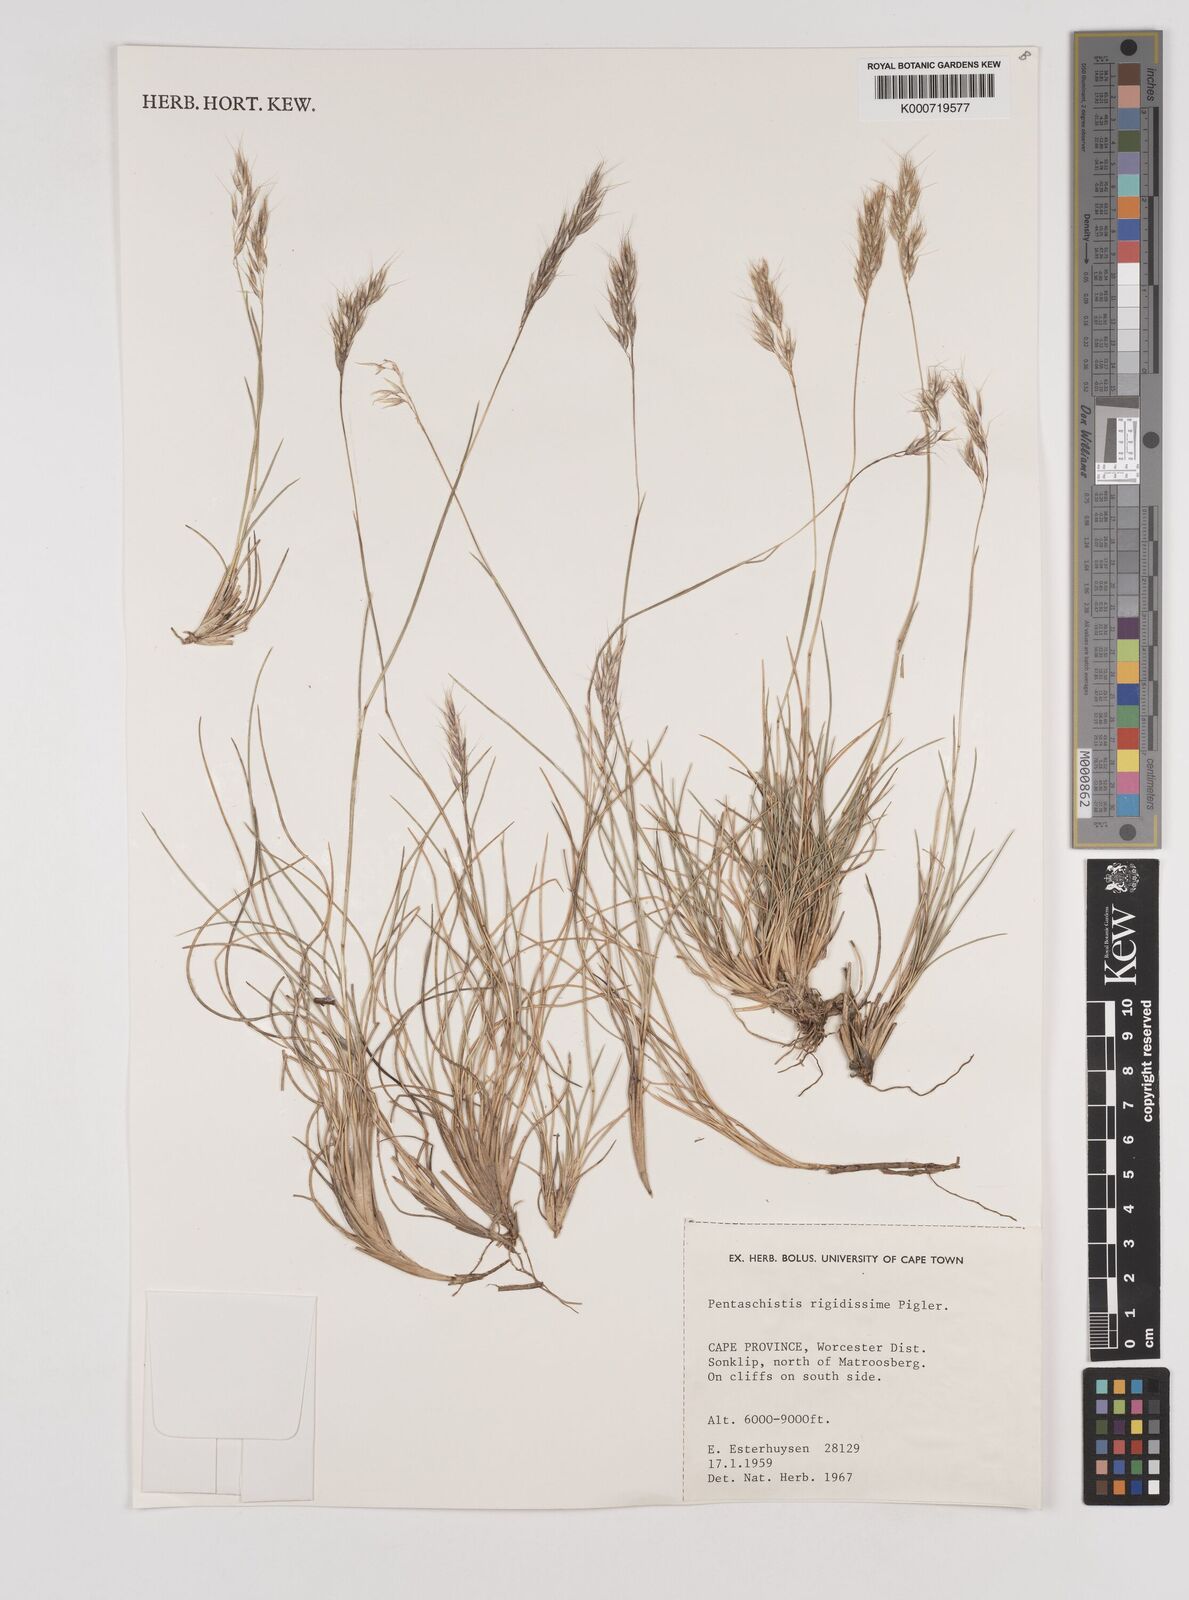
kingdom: Plantae
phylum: Tracheophyta
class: Liliopsida
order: Poales
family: Poaceae
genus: Pentameris
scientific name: Pentameris rigidissima
